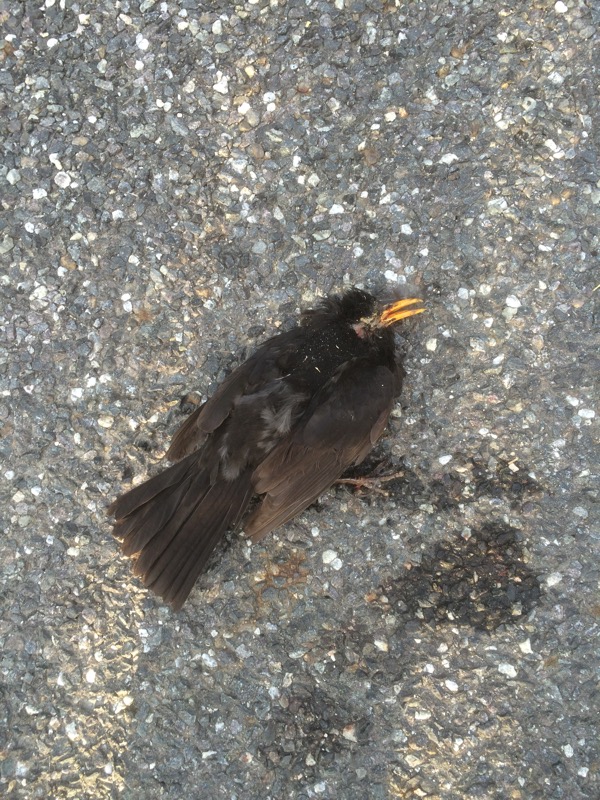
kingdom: Animalia
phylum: Chordata
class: Aves
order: Passeriformes
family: Turdidae
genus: Turdus
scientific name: Turdus merula
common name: Common blackbird
